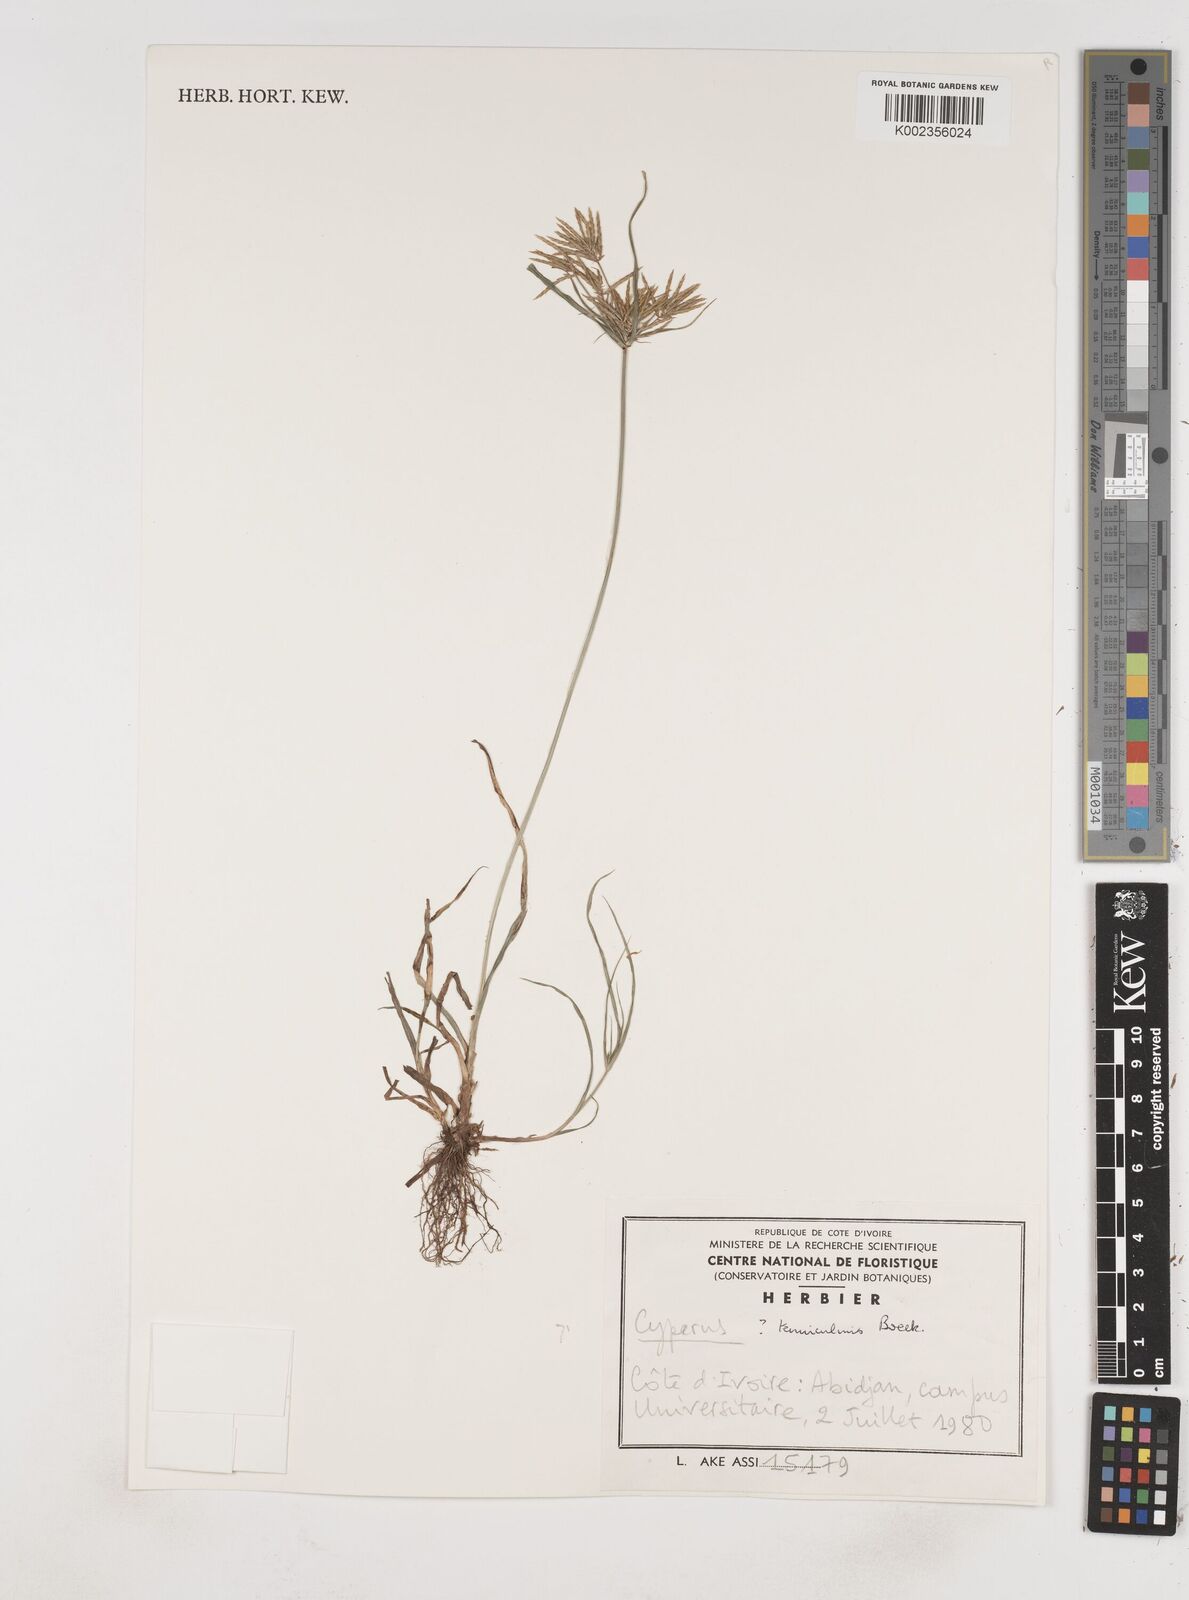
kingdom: Plantae
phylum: Tracheophyta
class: Liliopsida
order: Poales
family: Cyperaceae
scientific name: Cyperaceae
